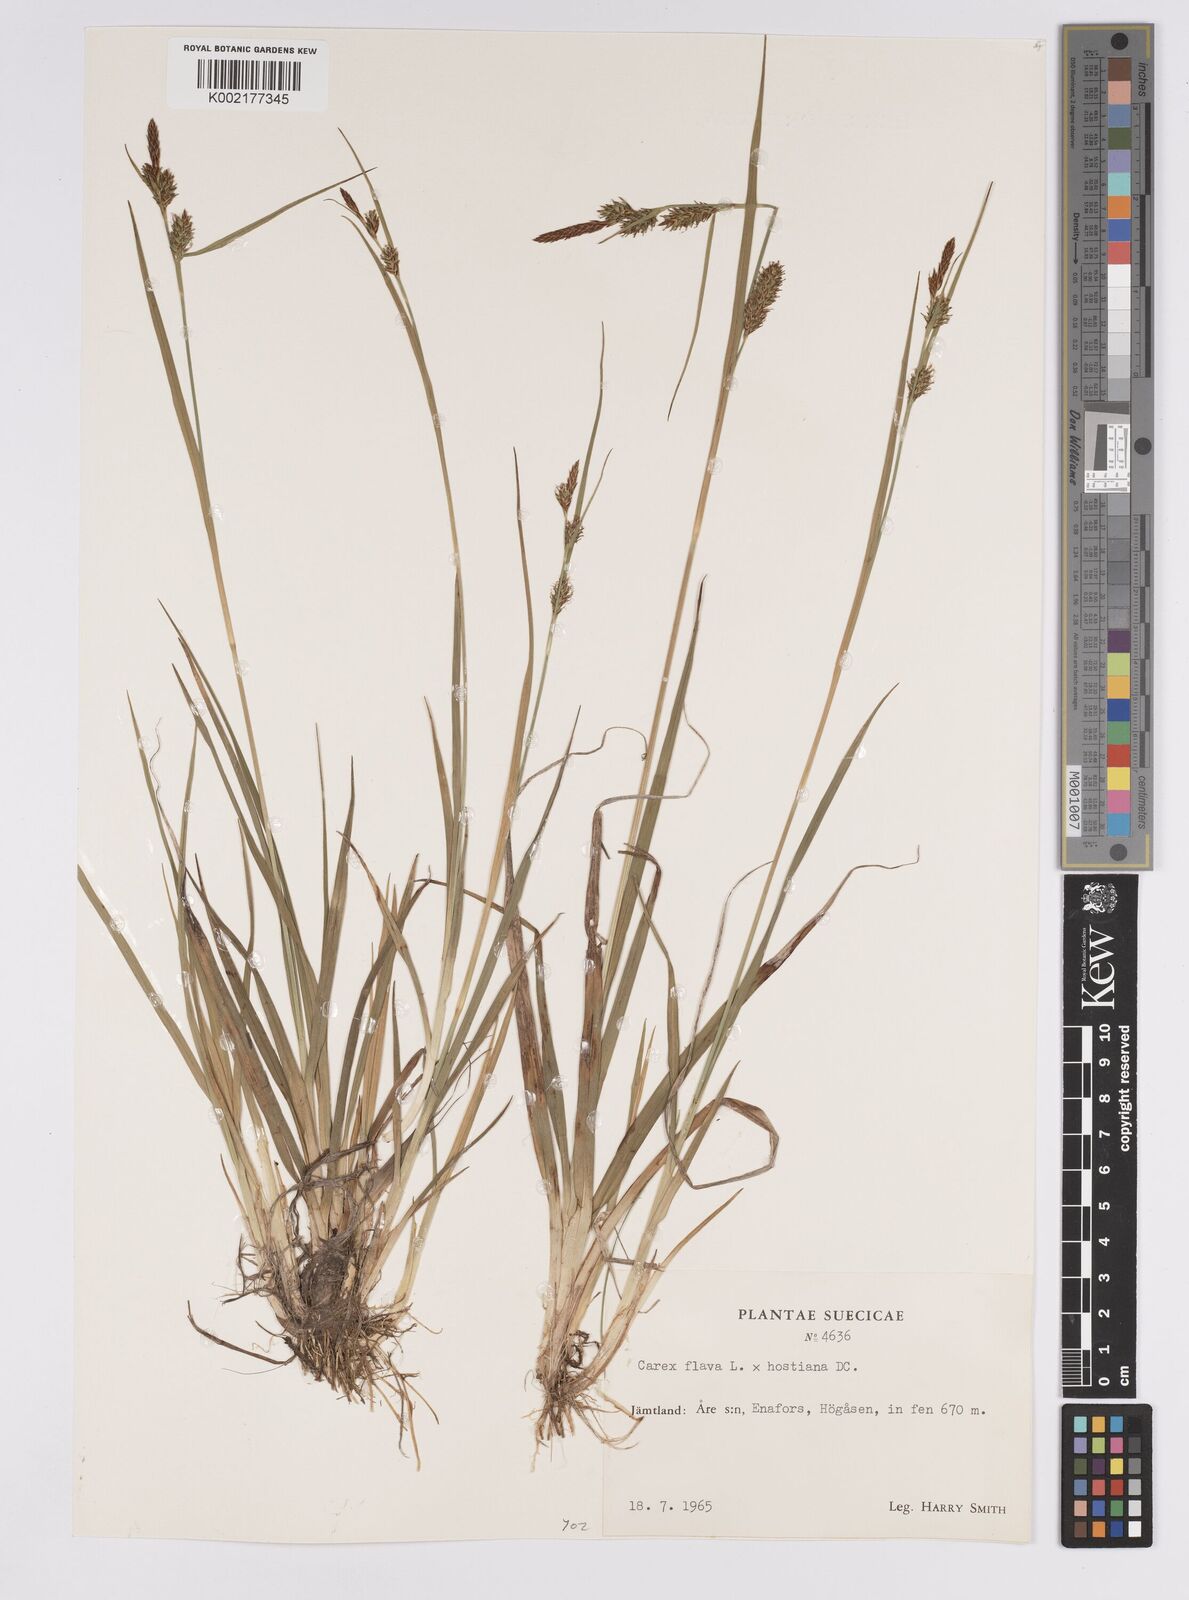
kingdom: Plantae
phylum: Tracheophyta
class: Liliopsida
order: Poales
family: Cyperaceae
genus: Carex
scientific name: Carex hostiana
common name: Tawny sedge
